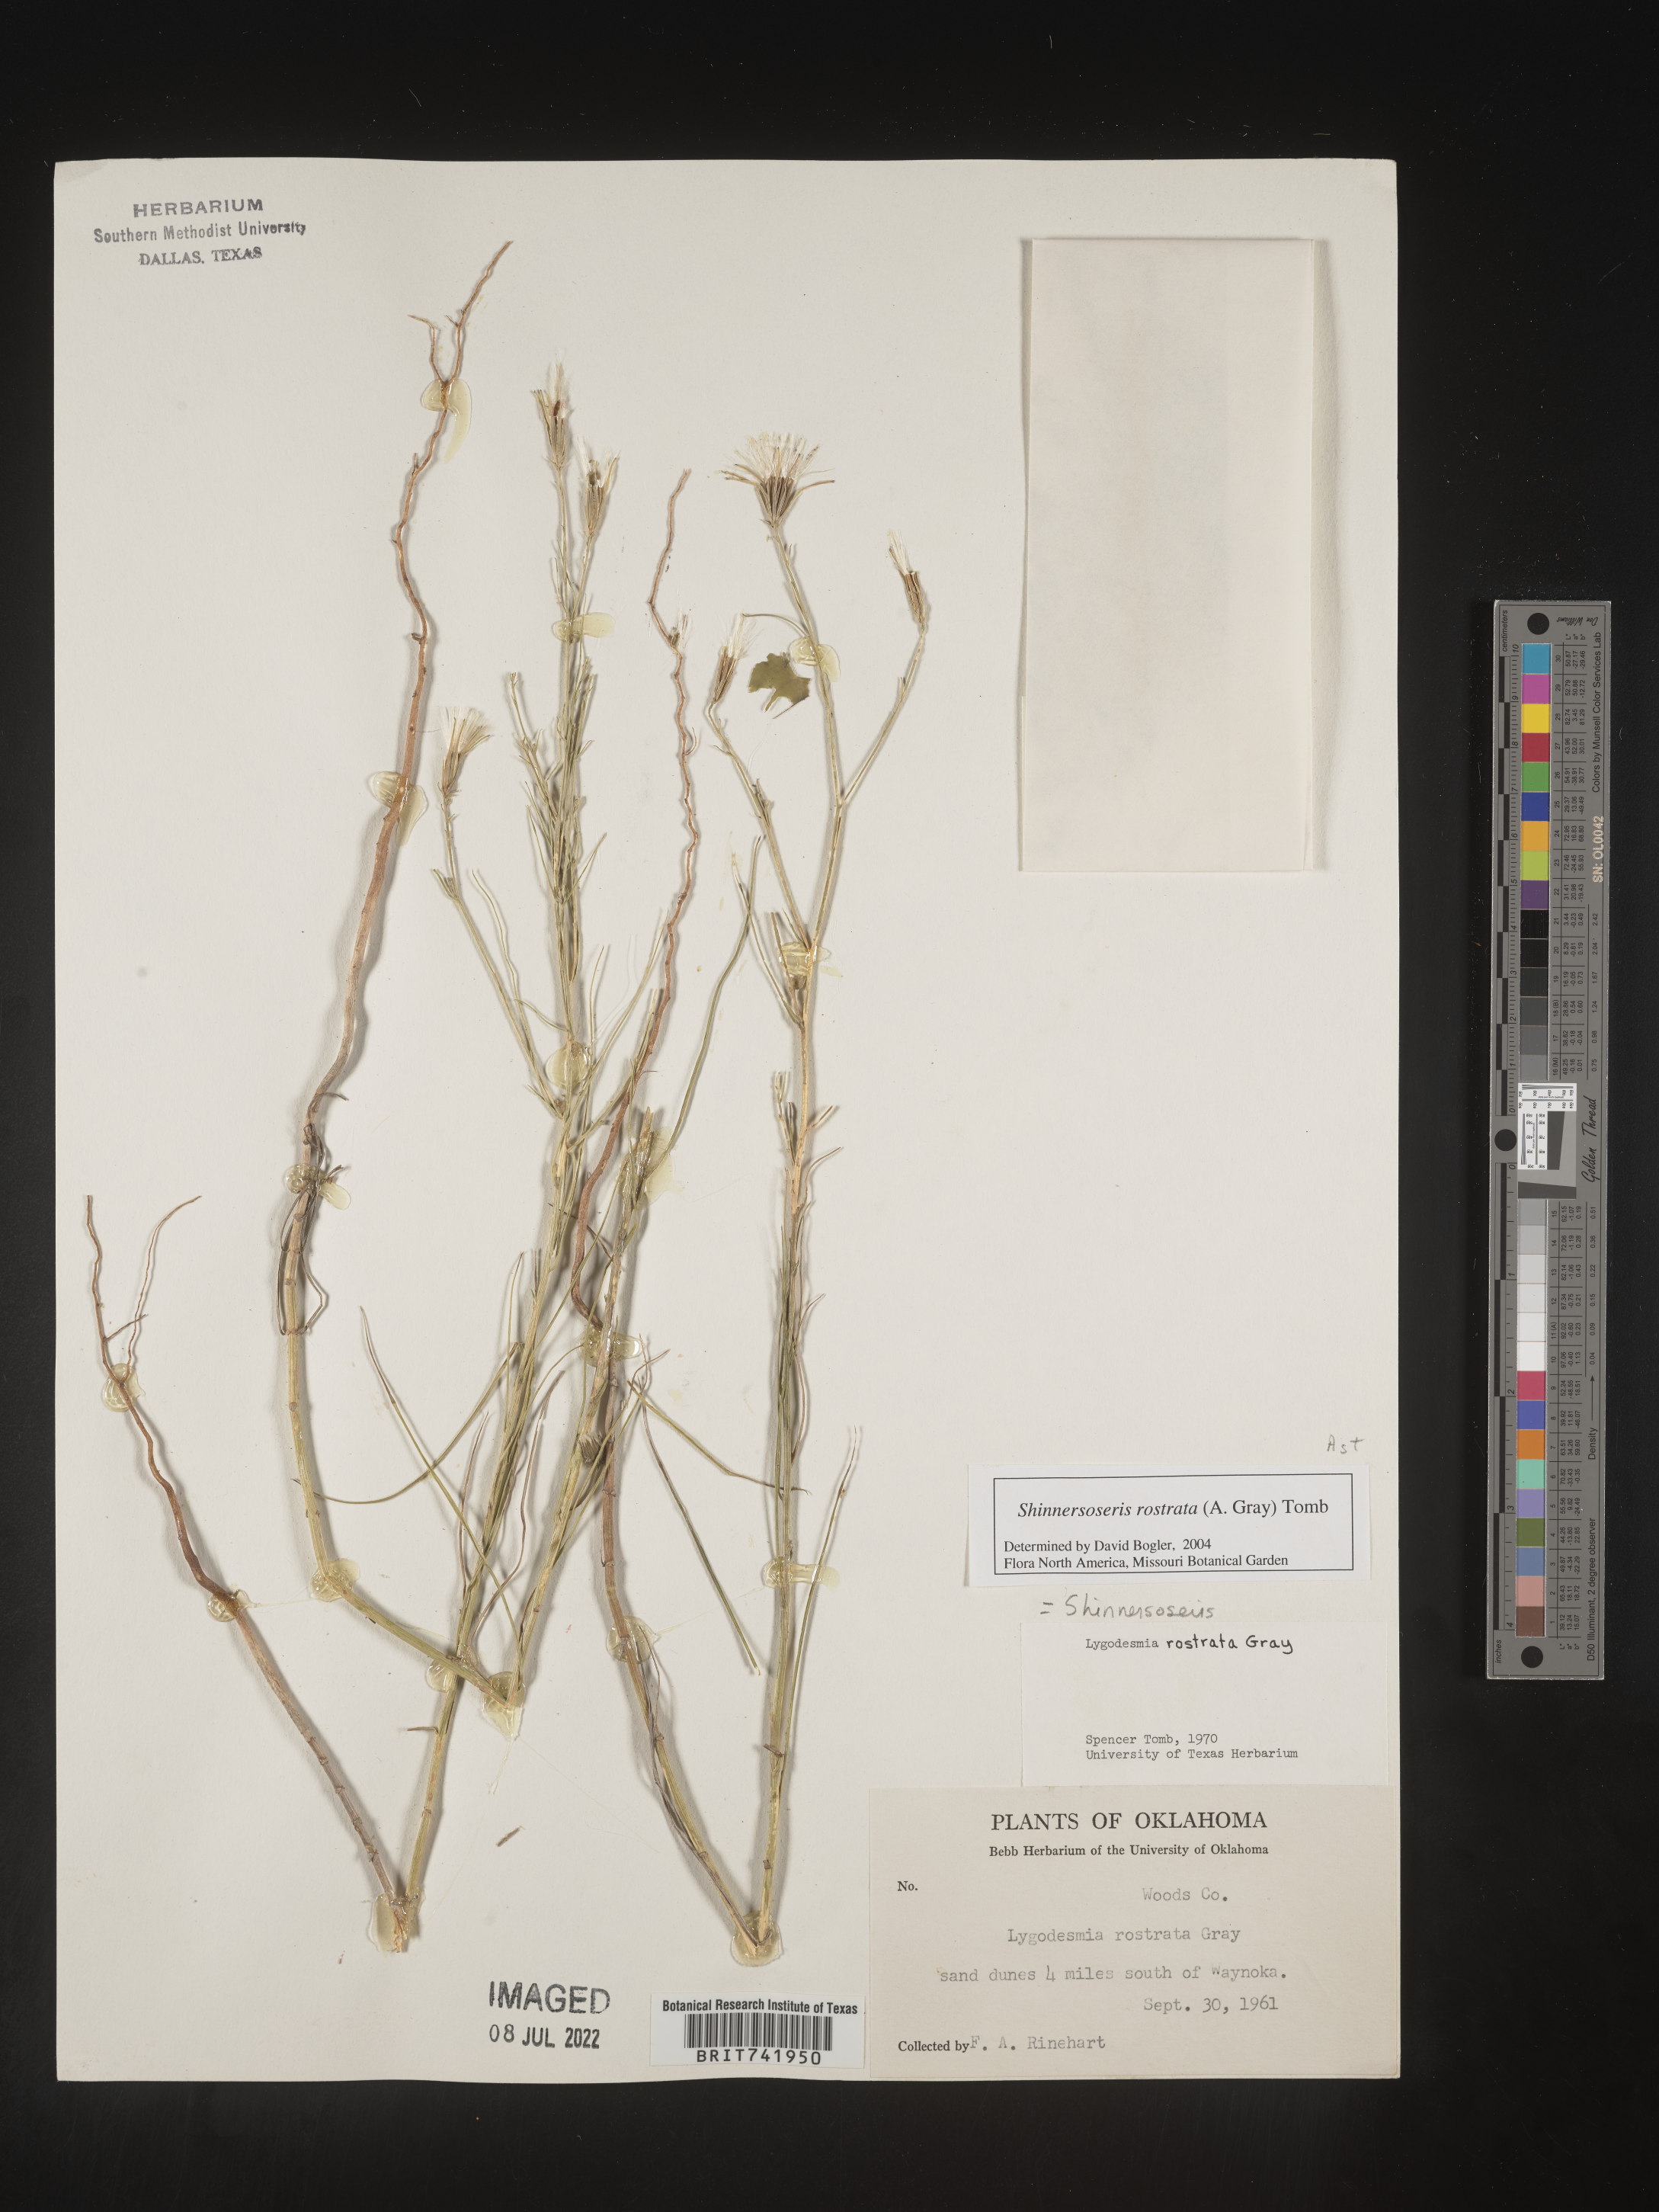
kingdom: Plantae
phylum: Tracheophyta
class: Magnoliopsida
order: Asterales
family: Asteraceae
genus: Shinnersoseris
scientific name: Shinnersoseris rostrata
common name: Annual skeleton-weed
